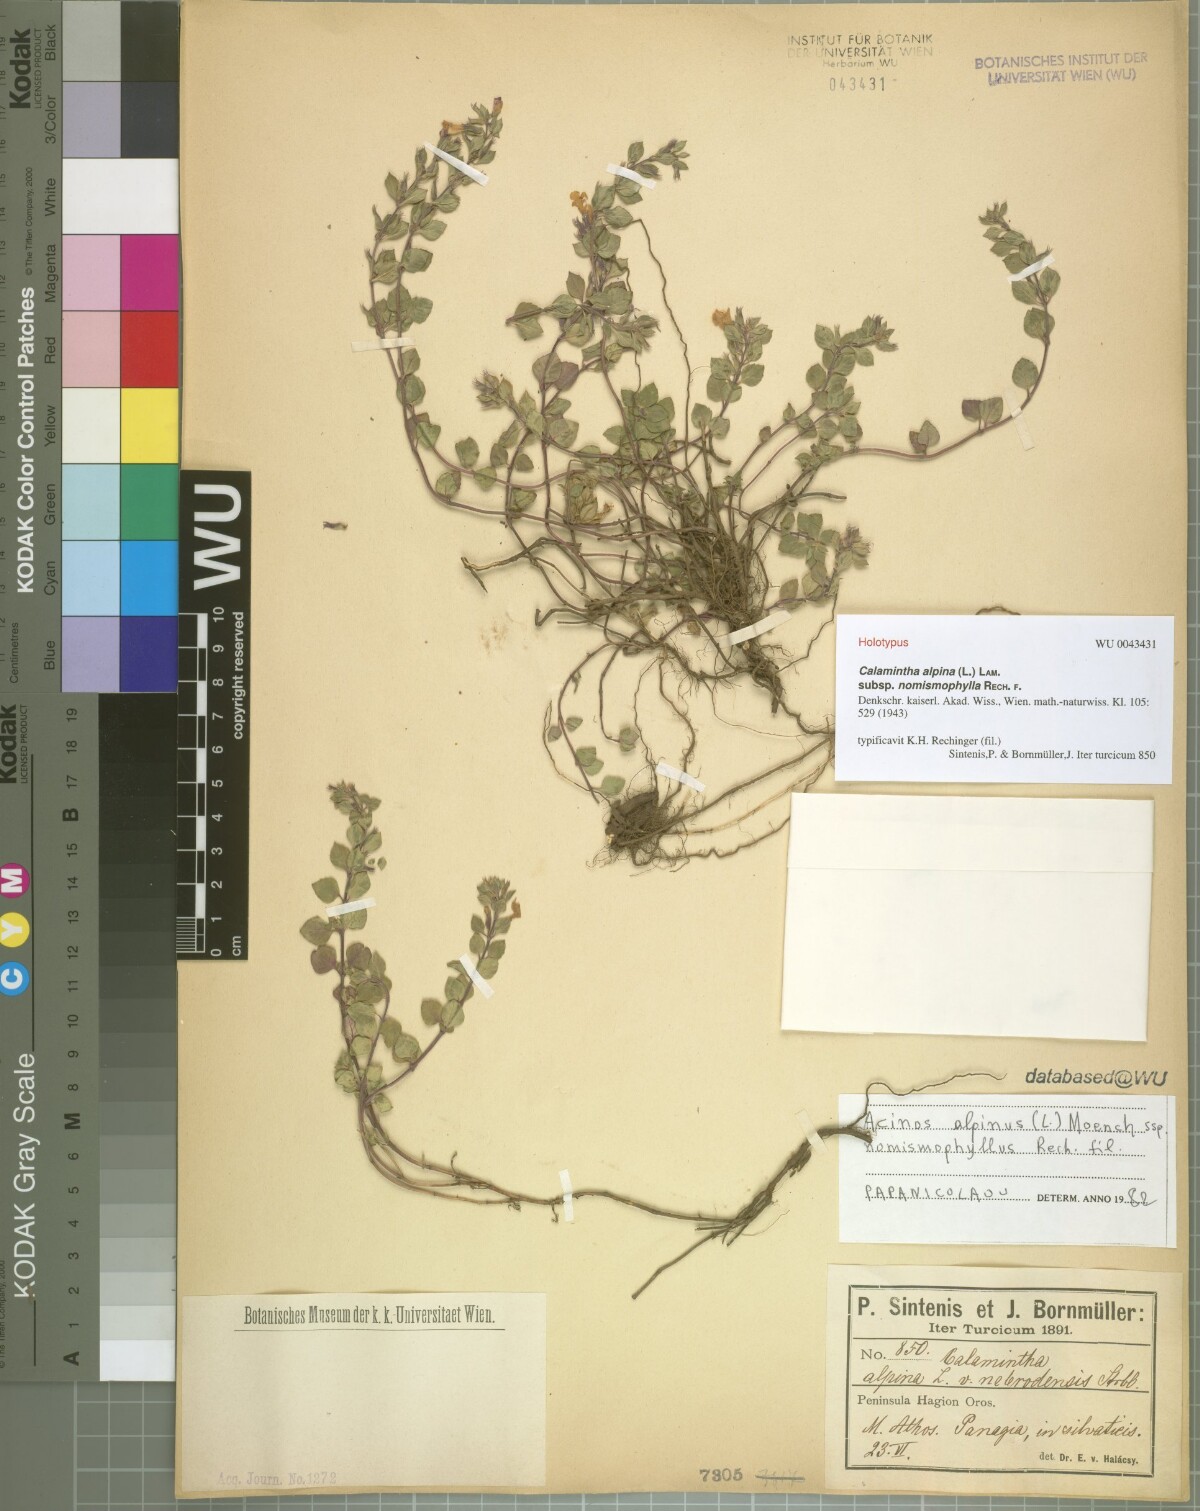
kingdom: Plantae
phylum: Tracheophyta
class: Magnoliopsida
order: Lamiales
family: Lamiaceae
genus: Clinopodium
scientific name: Clinopodium alpinum
